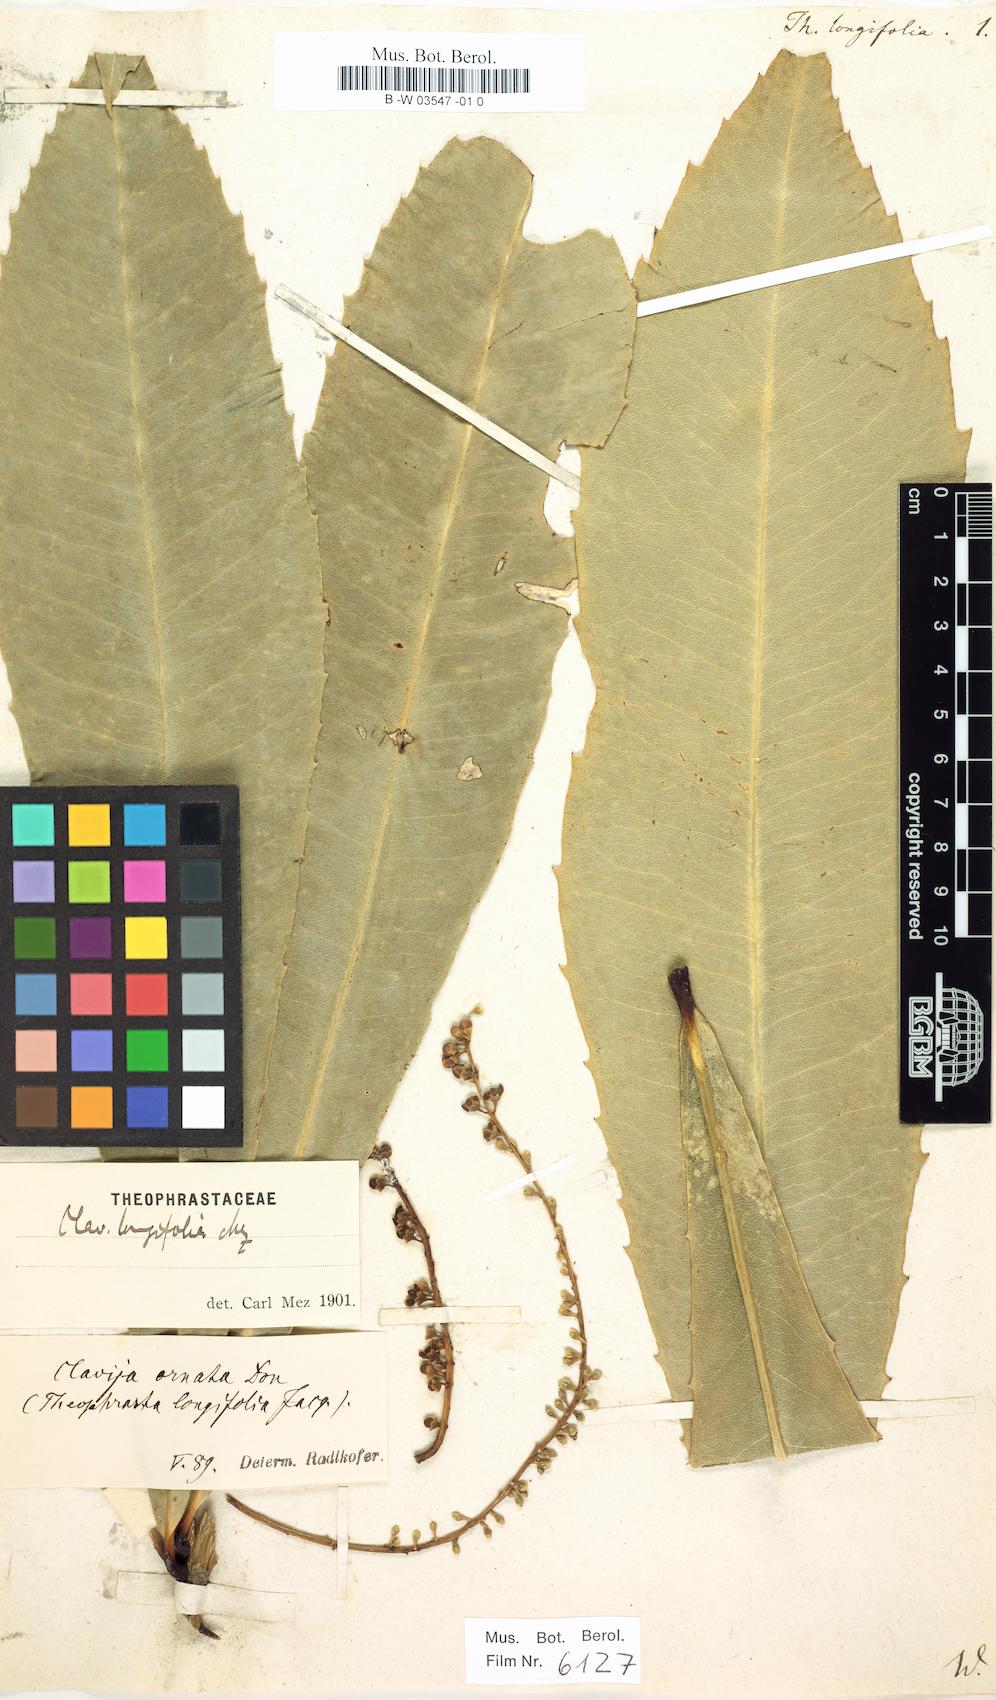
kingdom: Plantae
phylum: Tracheophyta
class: Magnoliopsida
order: Ericales
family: Primulaceae
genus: Clavija
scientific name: Clavija ornata
